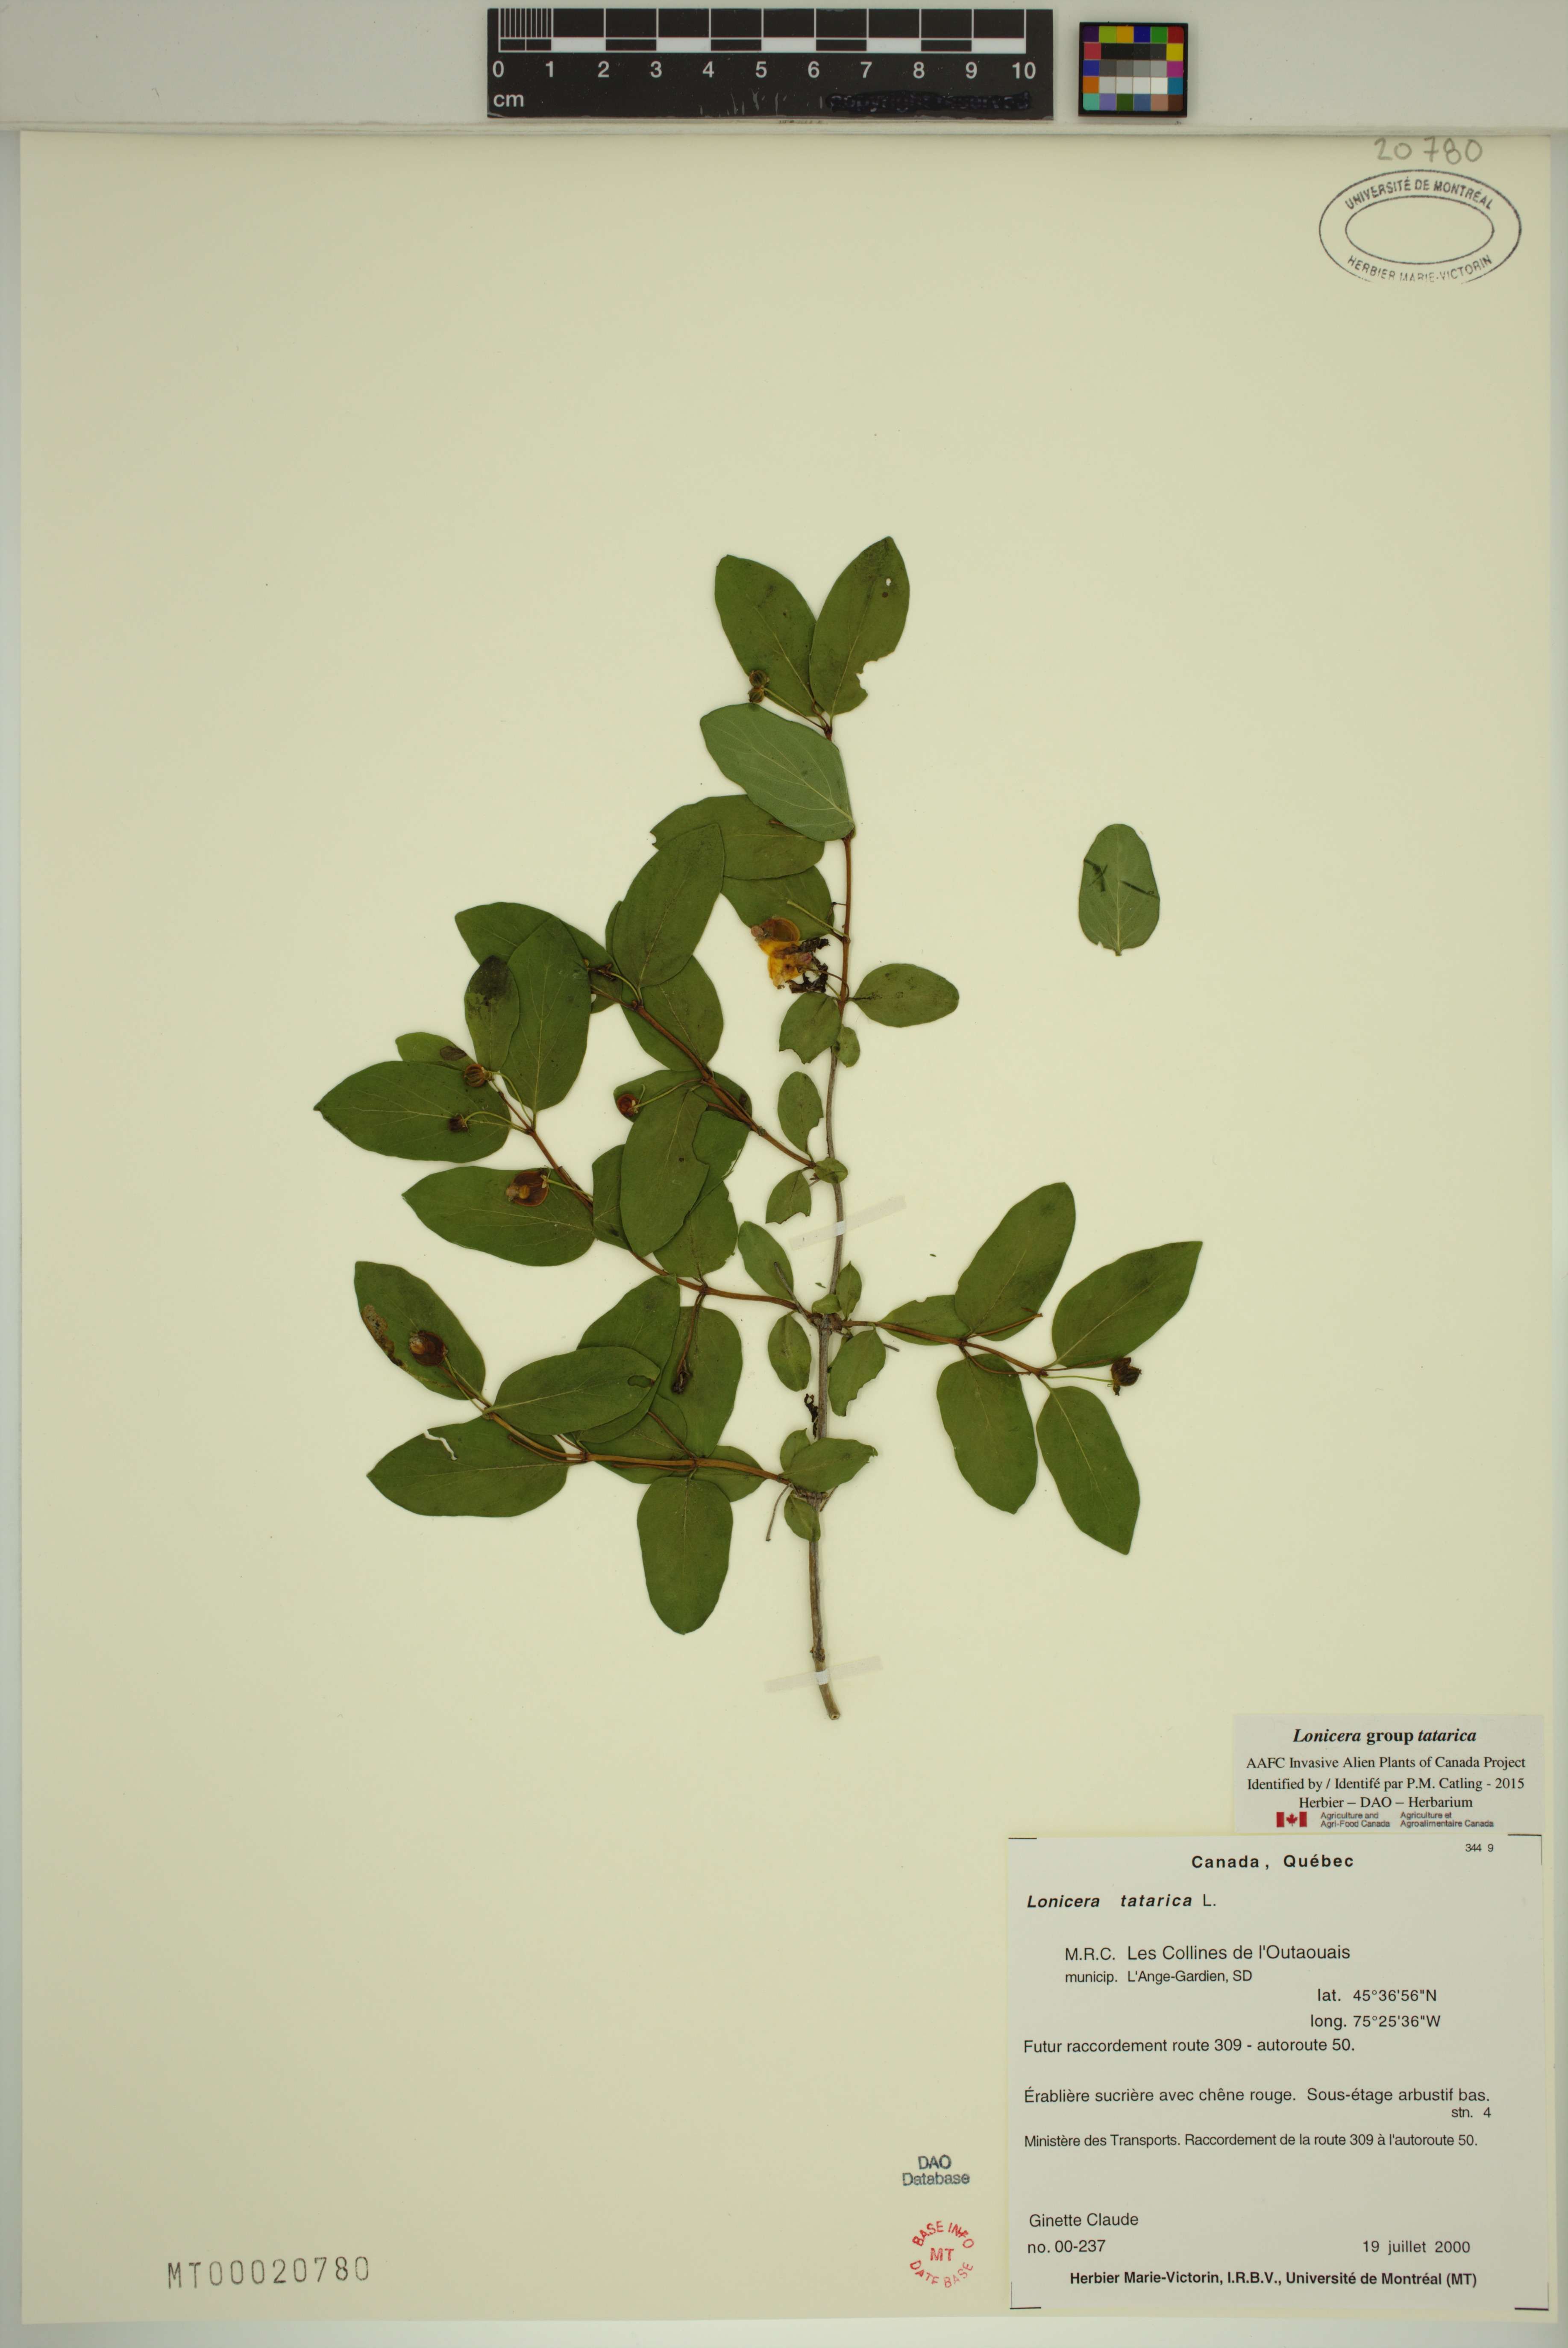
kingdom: Plantae
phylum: Tracheophyta
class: Magnoliopsida
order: Dipsacales
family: Caprifoliaceae
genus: Lonicera
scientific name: Lonicera tatarica
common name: Tatarian honeysuckle
